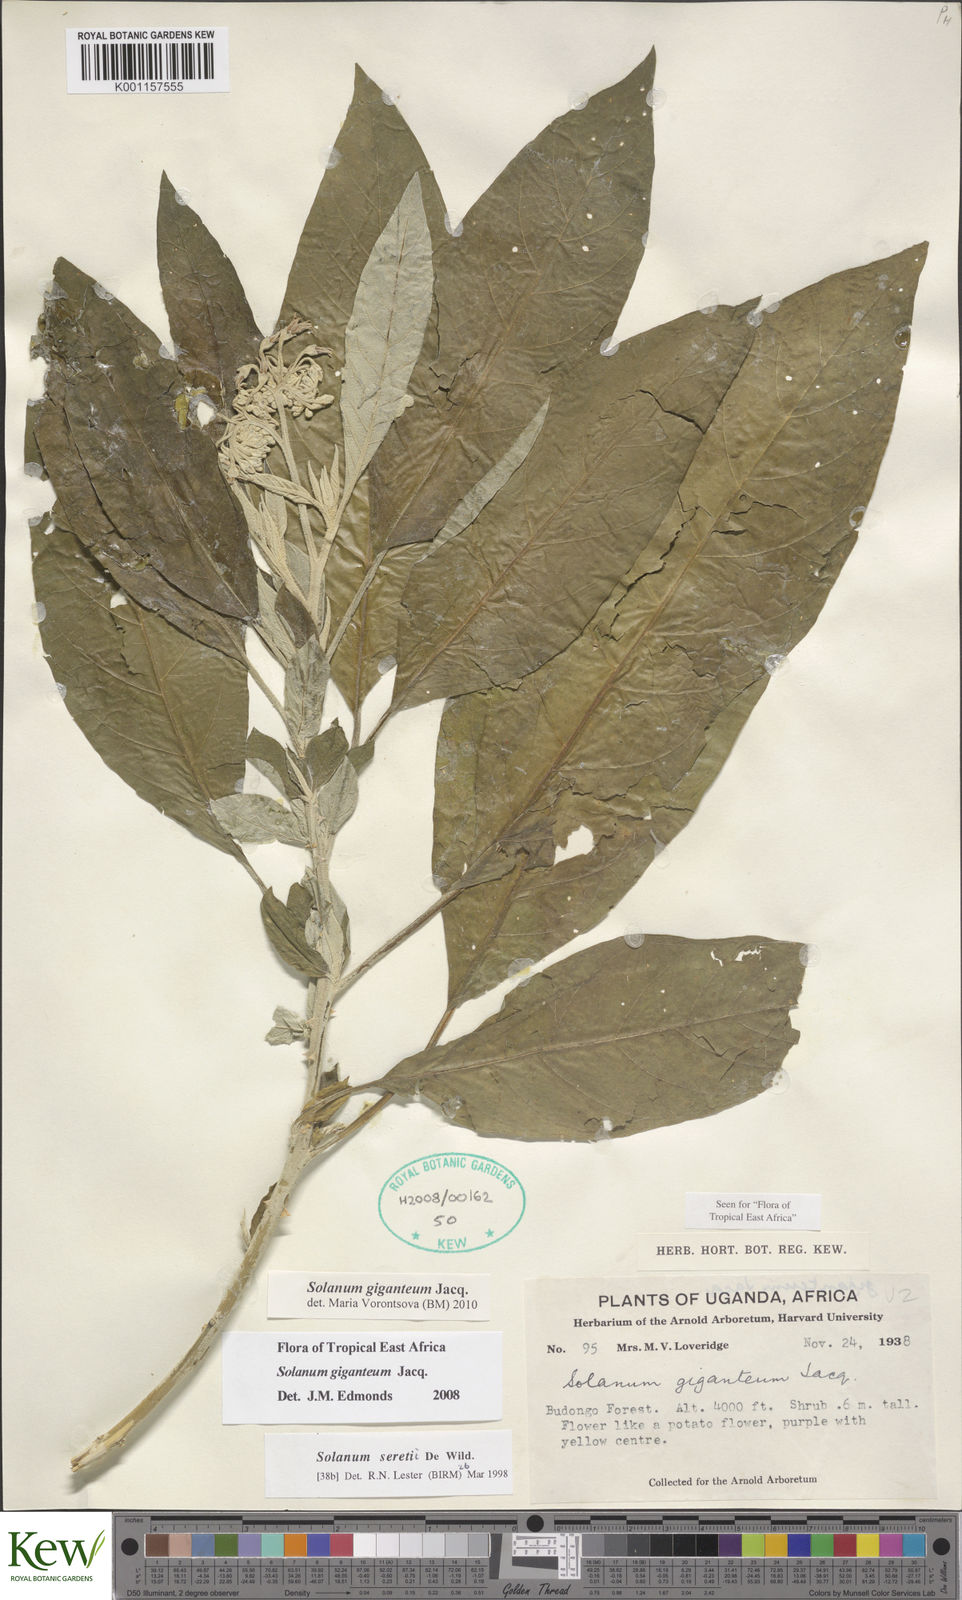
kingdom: Plantae
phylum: Tracheophyta
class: Magnoliopsida
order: Solanales
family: Solanaceae
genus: Solanum
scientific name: Solanum giganteum
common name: Healing-leaf-tree
